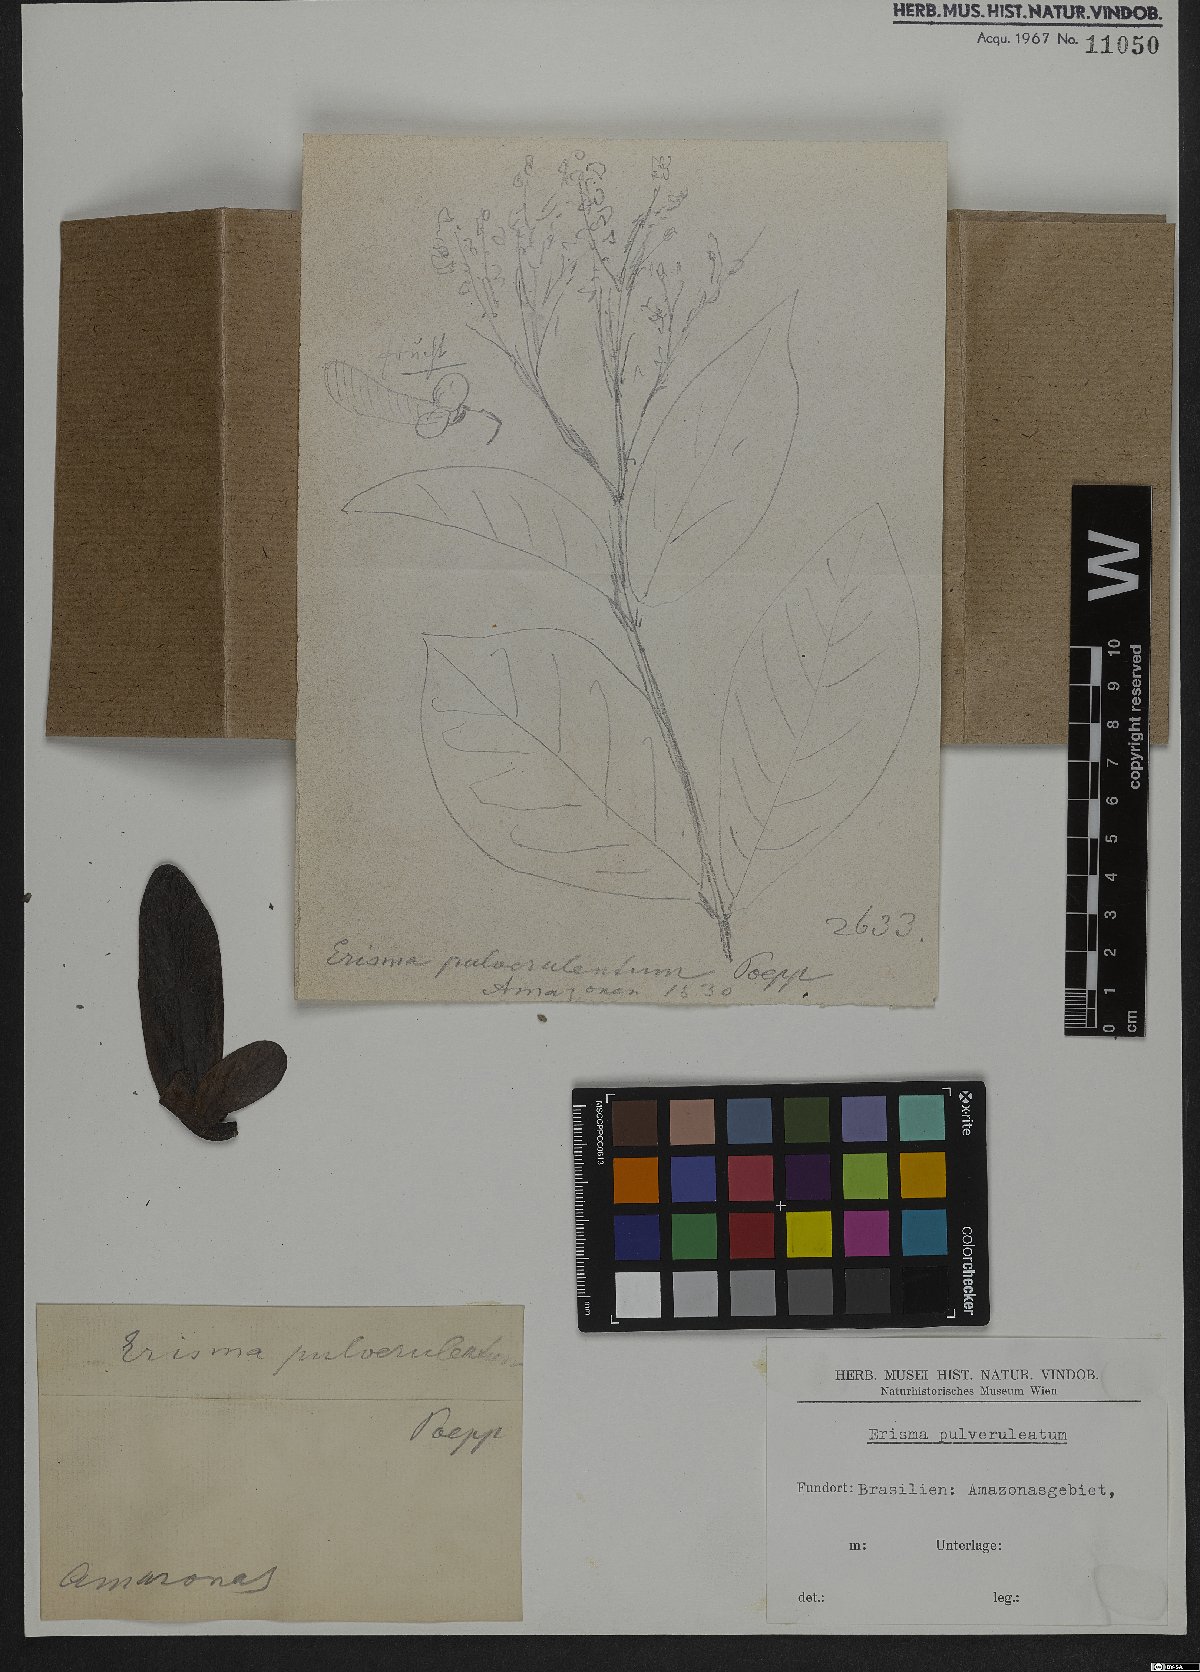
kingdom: Plantae
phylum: Tracheophyta
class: Magnoliopsida
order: Myrtales
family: Vochysiaceae
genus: Erisma
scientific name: Erisma uncinatum
